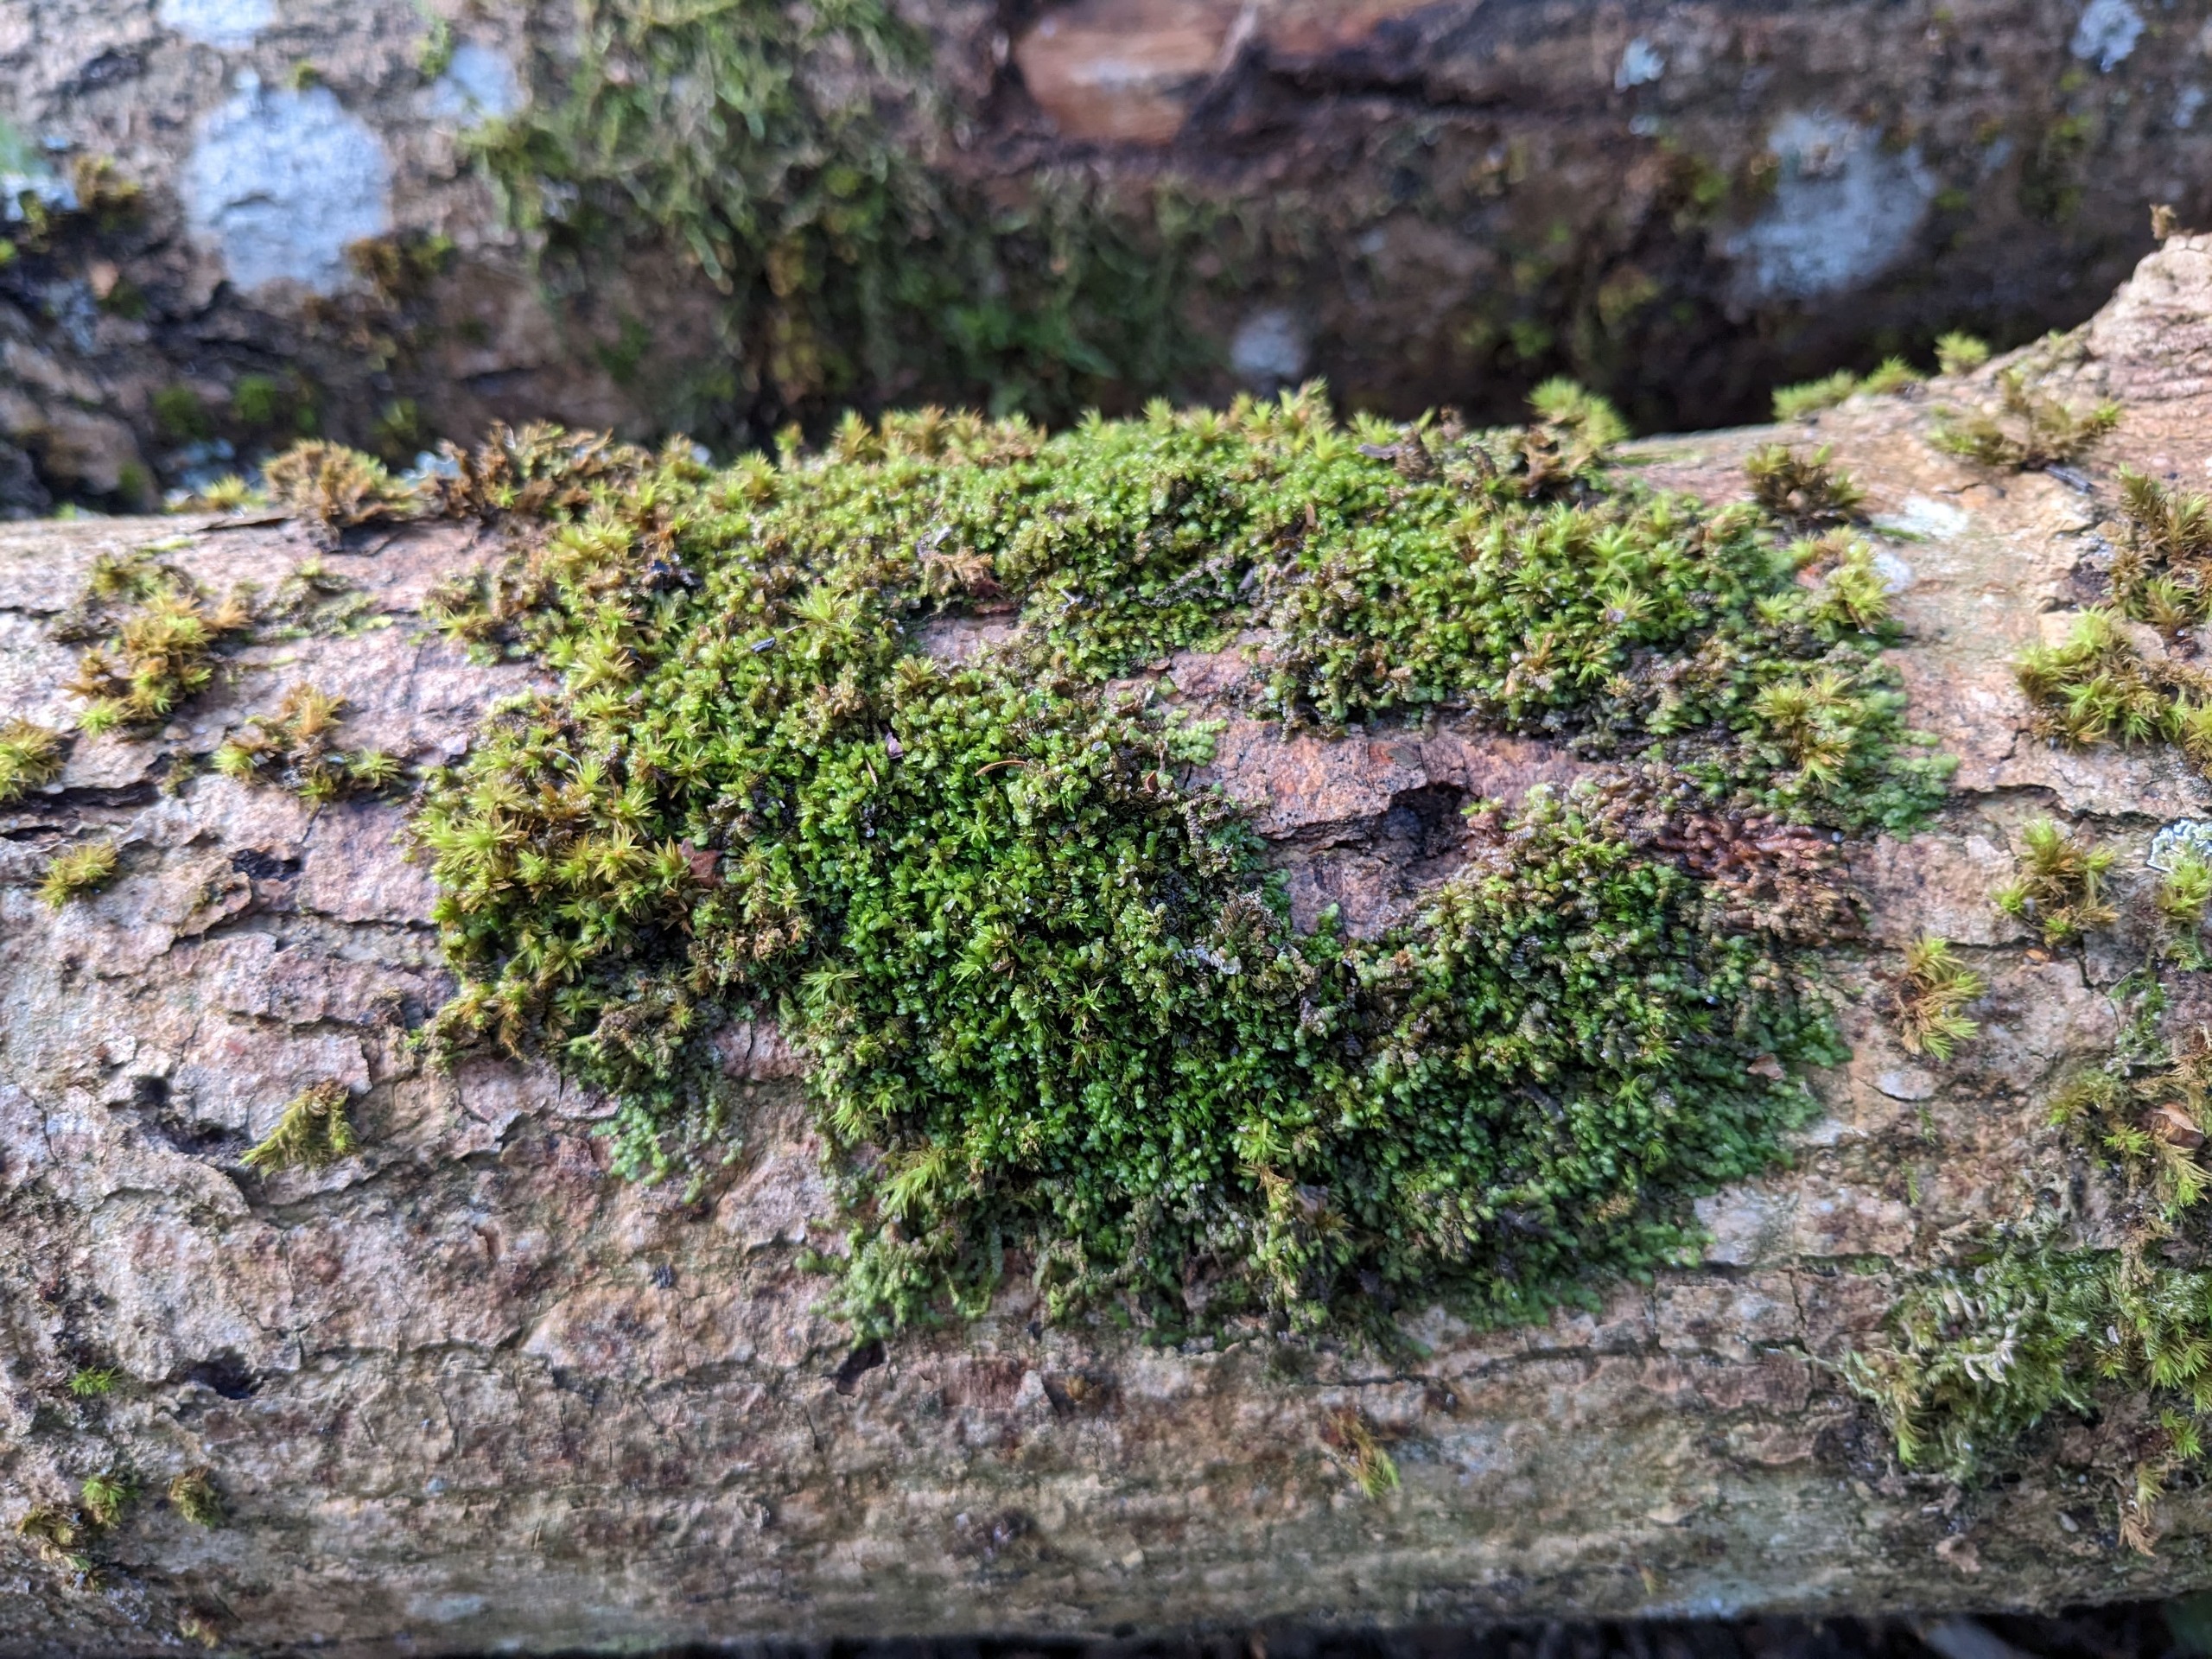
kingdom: Plantae
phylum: Marchantiophyta
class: Jungermanniopsida
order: Porellales
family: Frullaniaceae
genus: Frullania
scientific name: Frullania dilatata
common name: Mat bronzemos
